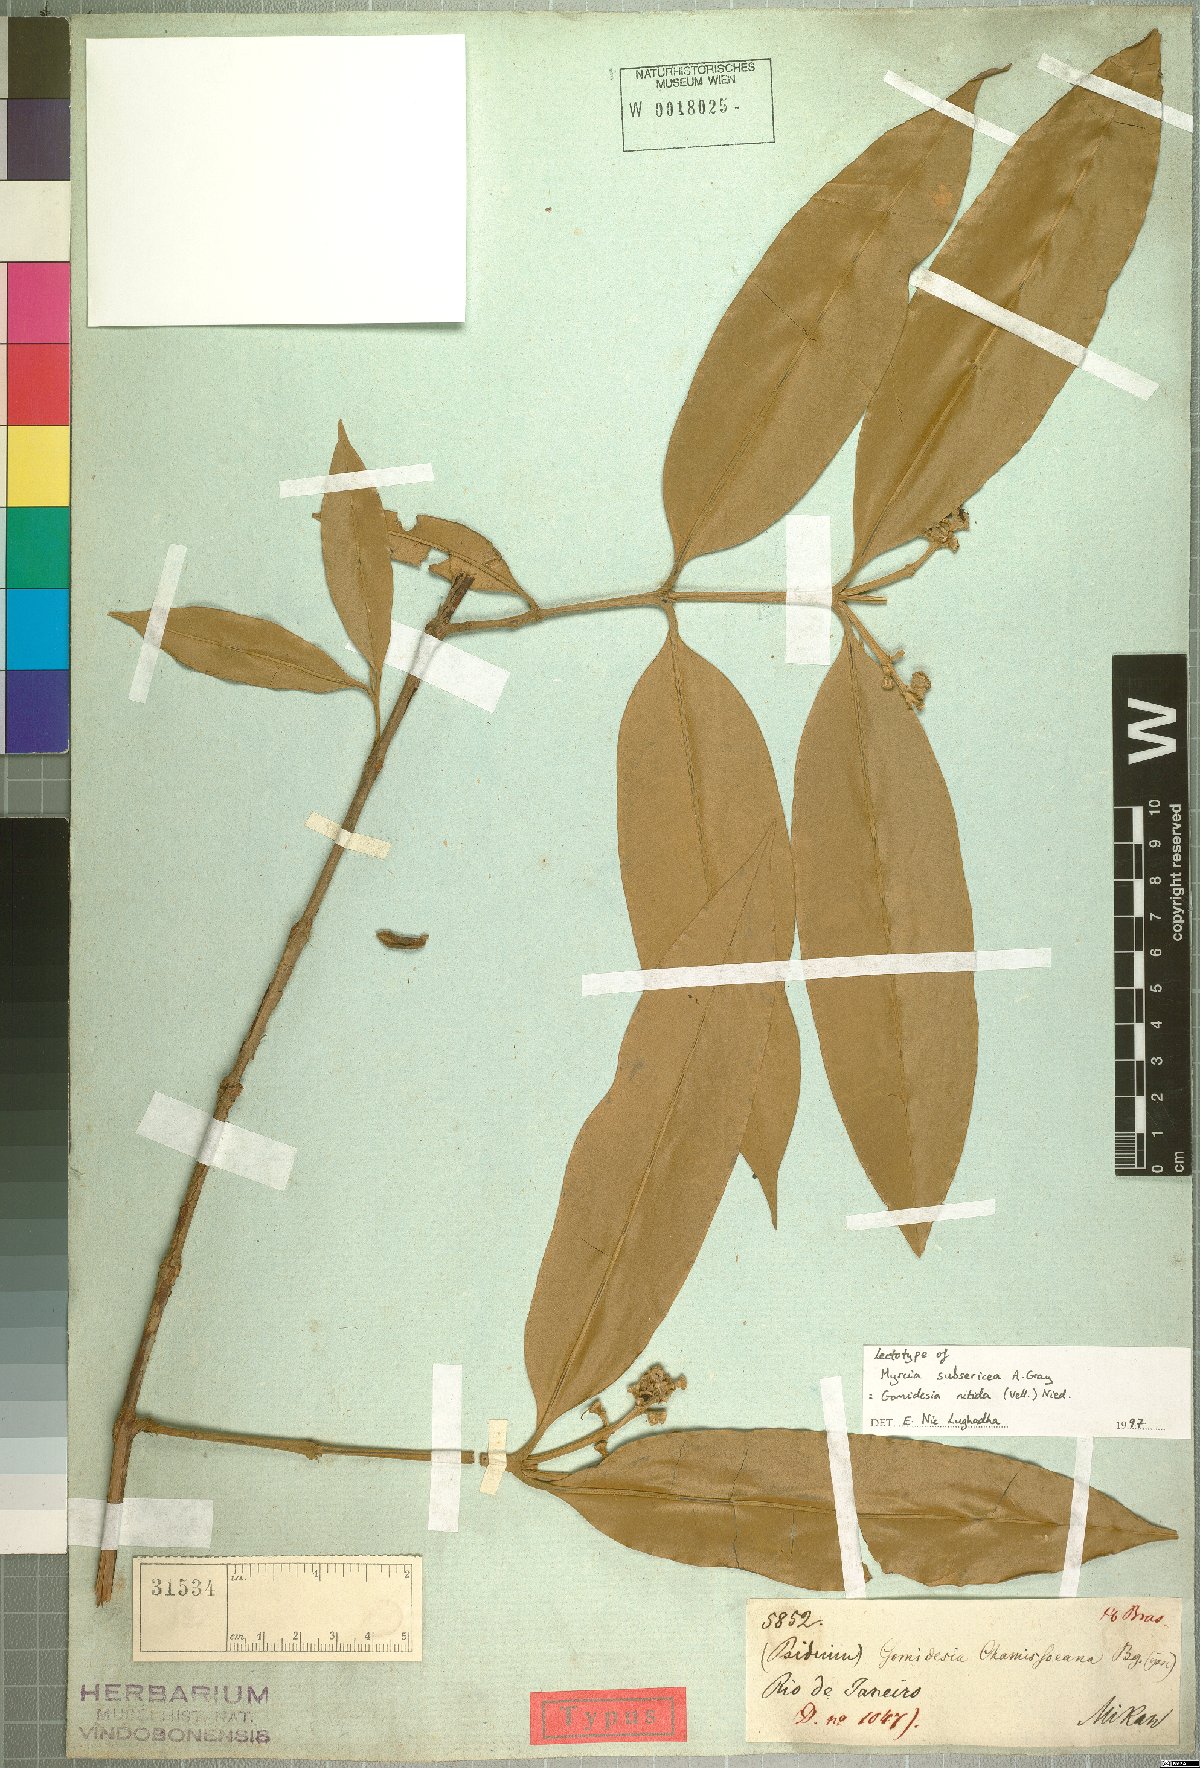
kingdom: Plantae
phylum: Tracheophyta
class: Magnoliopsida
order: Myrtales
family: Myrtaceae
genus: Myrcia
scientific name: Myrcia subsericea
